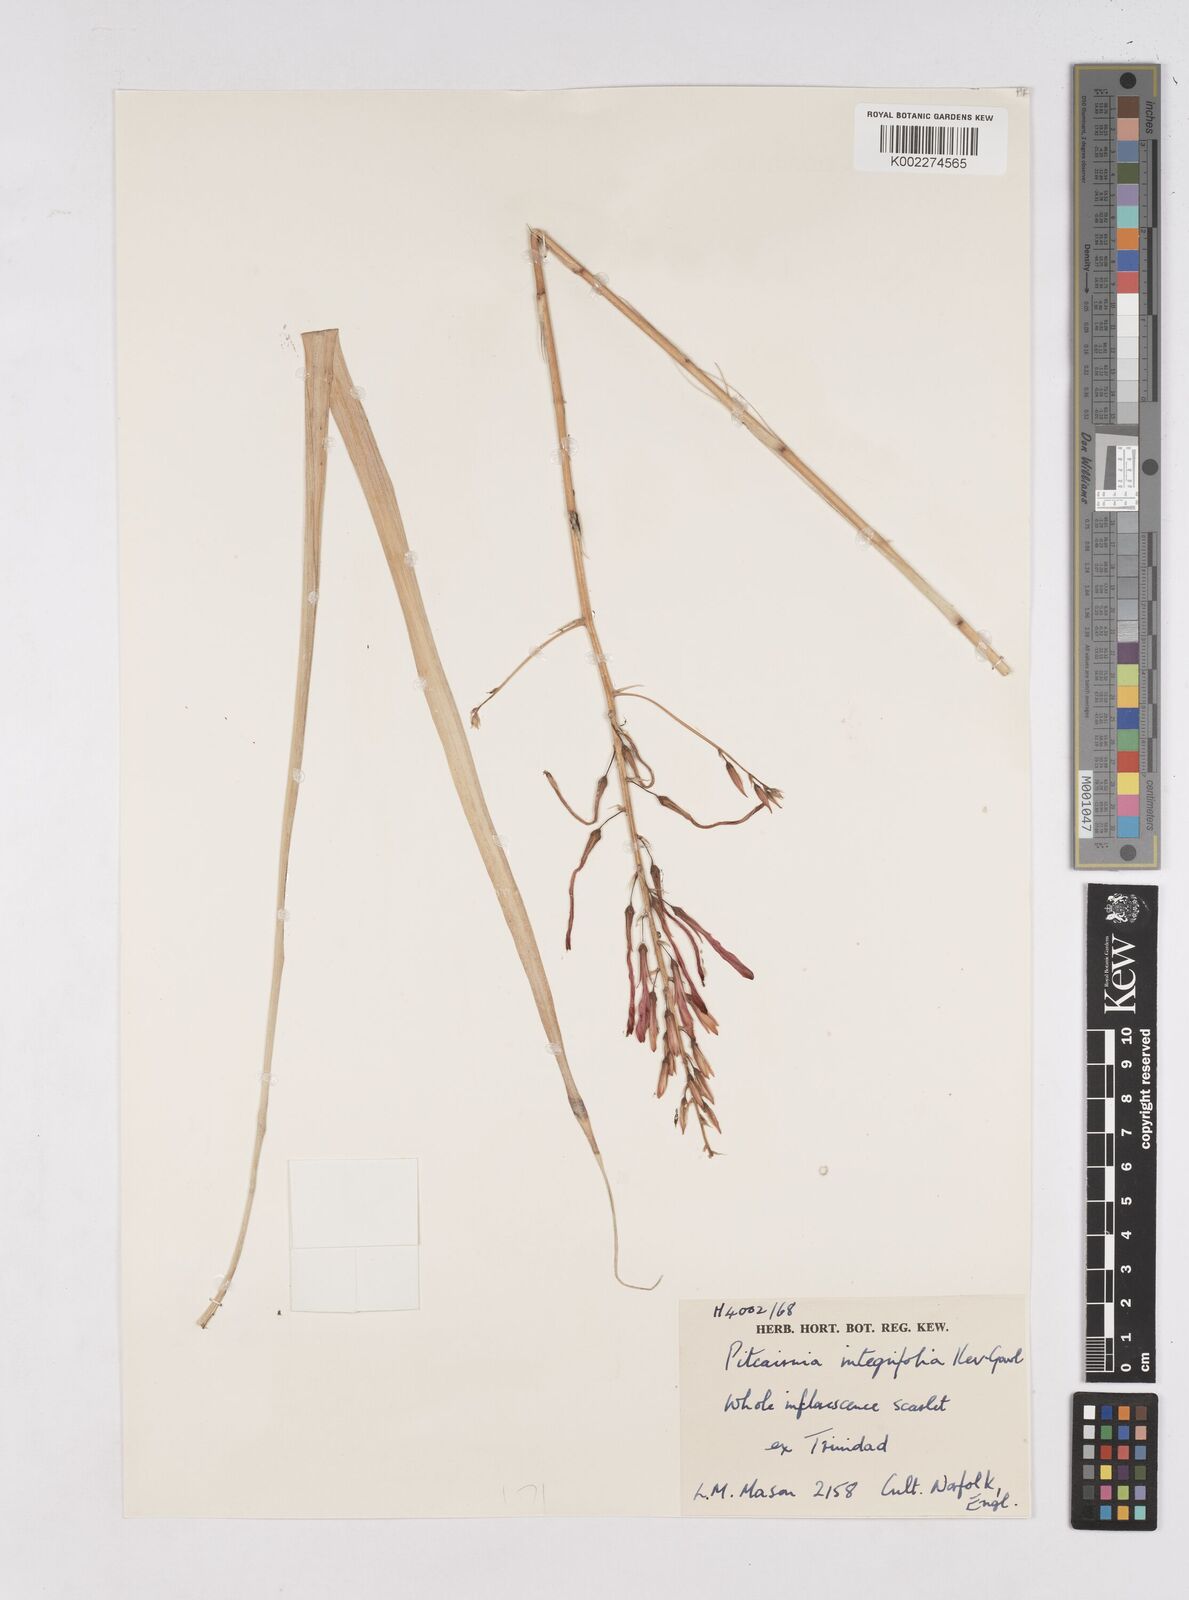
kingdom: Plantae
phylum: Tracheophyta
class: Liliopsida
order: Poales
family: Bromeliaceae
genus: Pitcairnia
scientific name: Pitcairnia integrifolia
